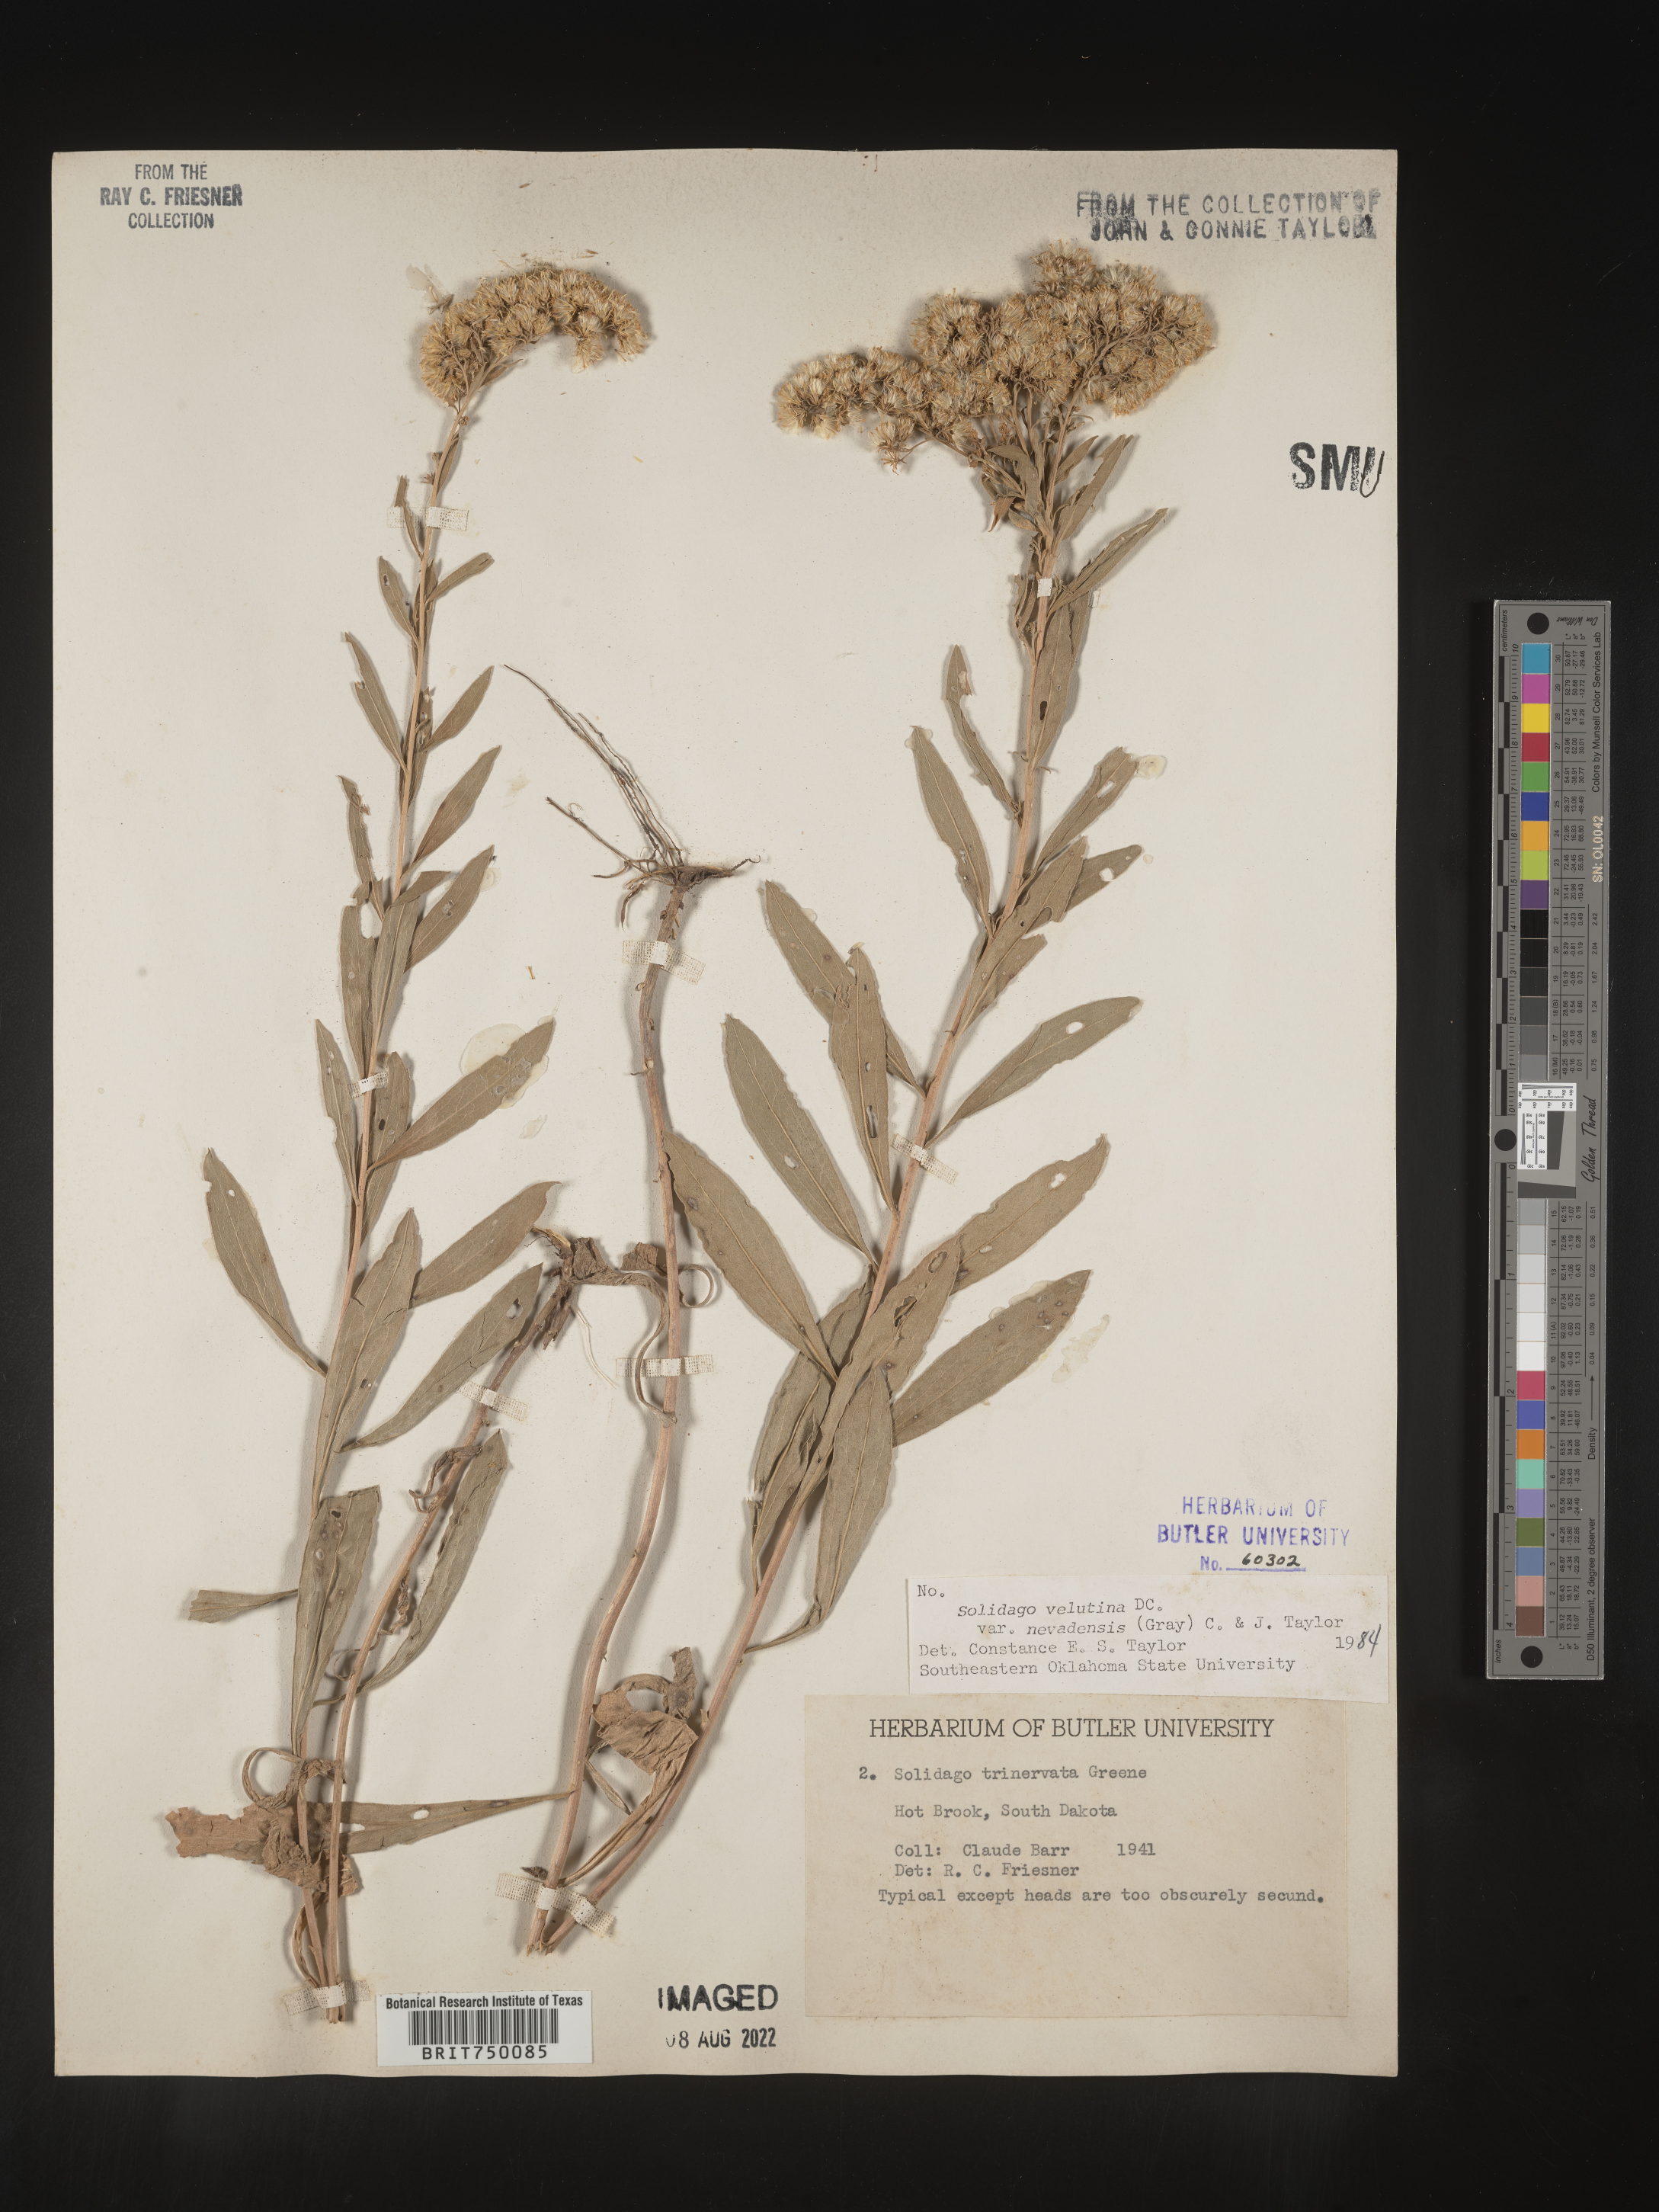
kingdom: Plantae
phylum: Tracheophyta
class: Magnoliopsida
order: Asterales
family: Asteraceae
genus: Solidago
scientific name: Solidago garrettii
